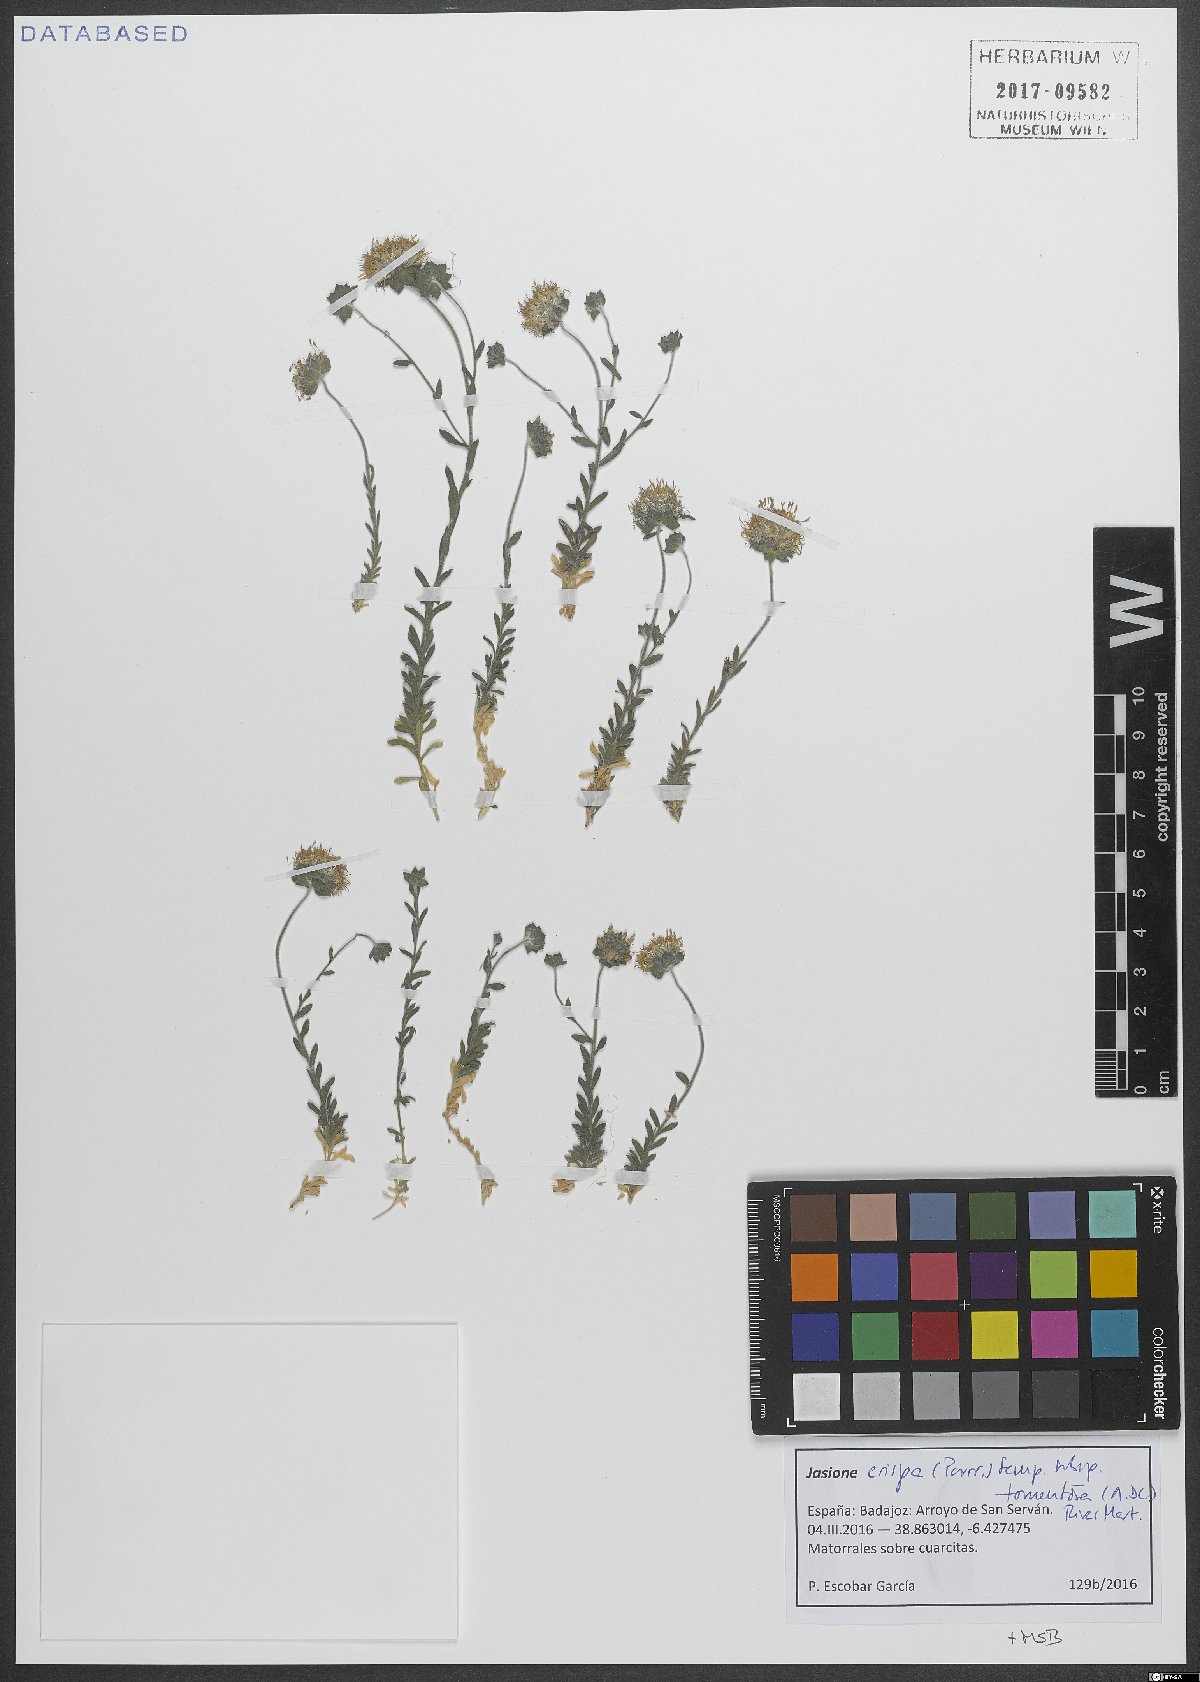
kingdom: Plantae
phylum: Tracheophyta
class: Magnoliopsida
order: Asterales
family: Campanulaceae
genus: Jasione
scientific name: Jasione crispa
